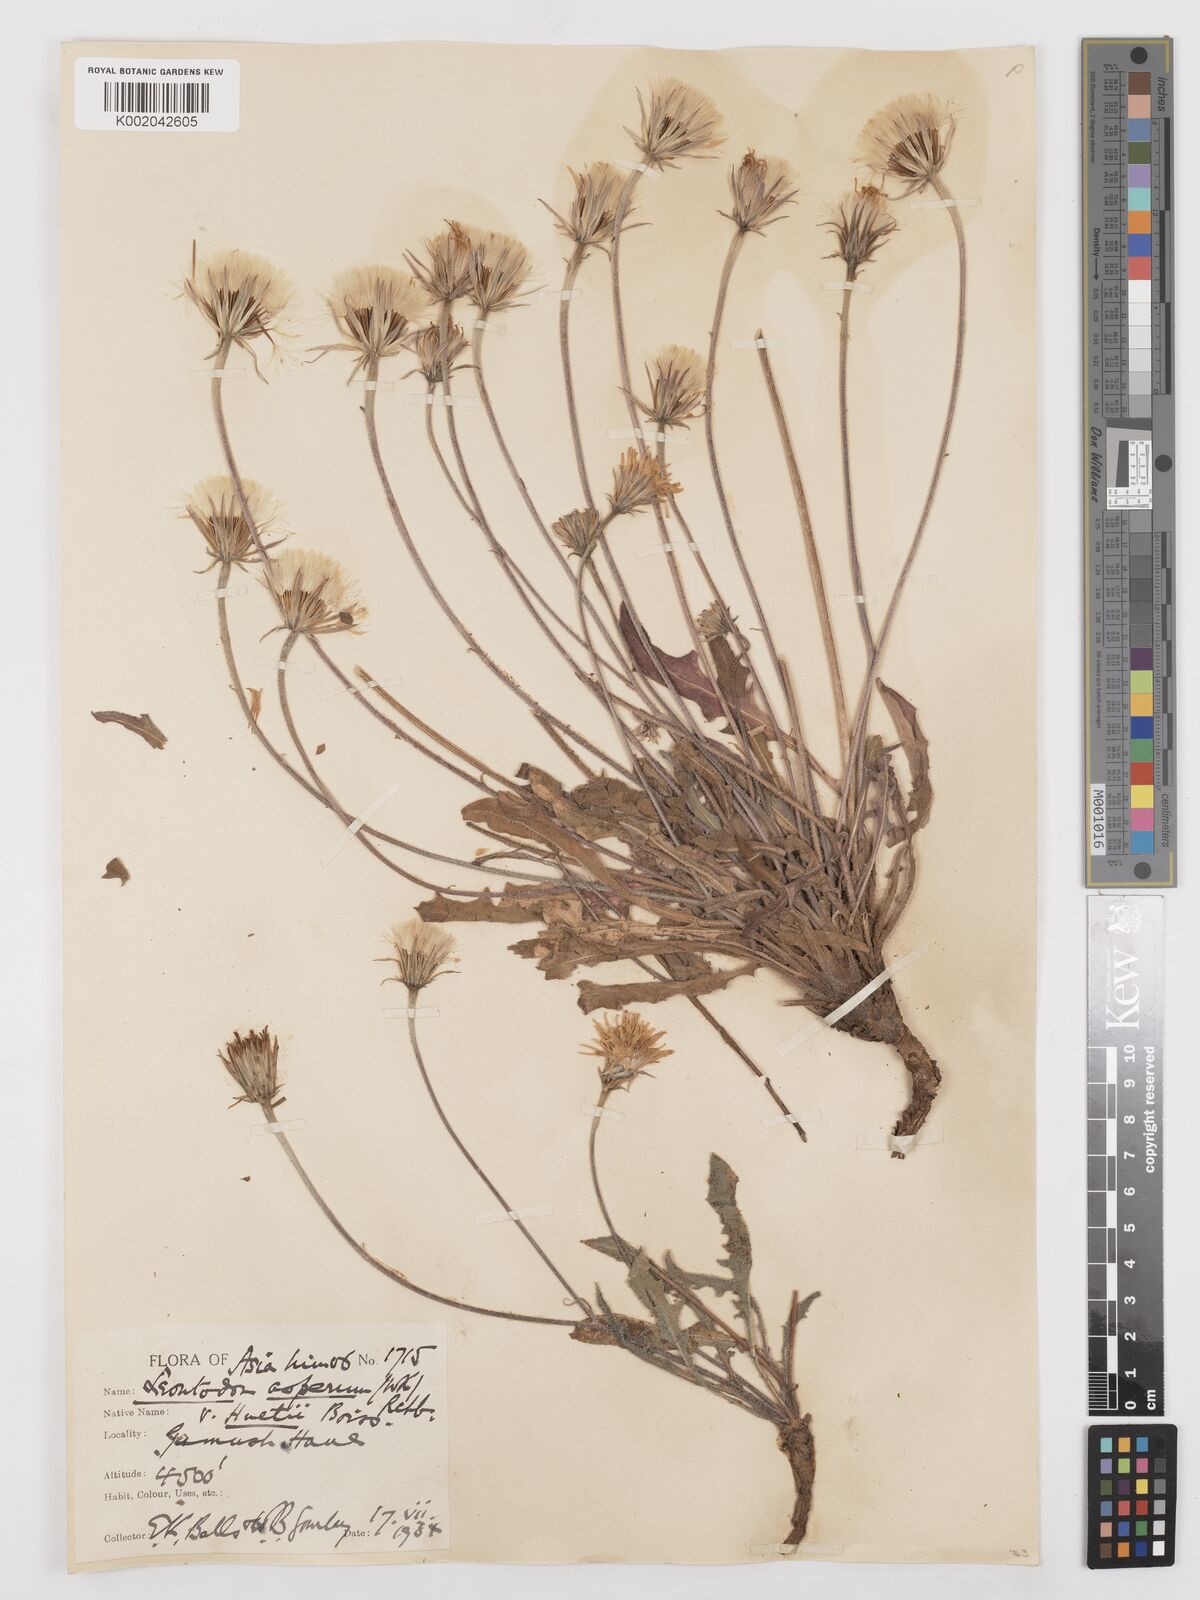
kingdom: Plantae
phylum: Tracheophyta
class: Magnoliopsida
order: Asterales
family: Asteraceae
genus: Leontodon
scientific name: Leontodon
